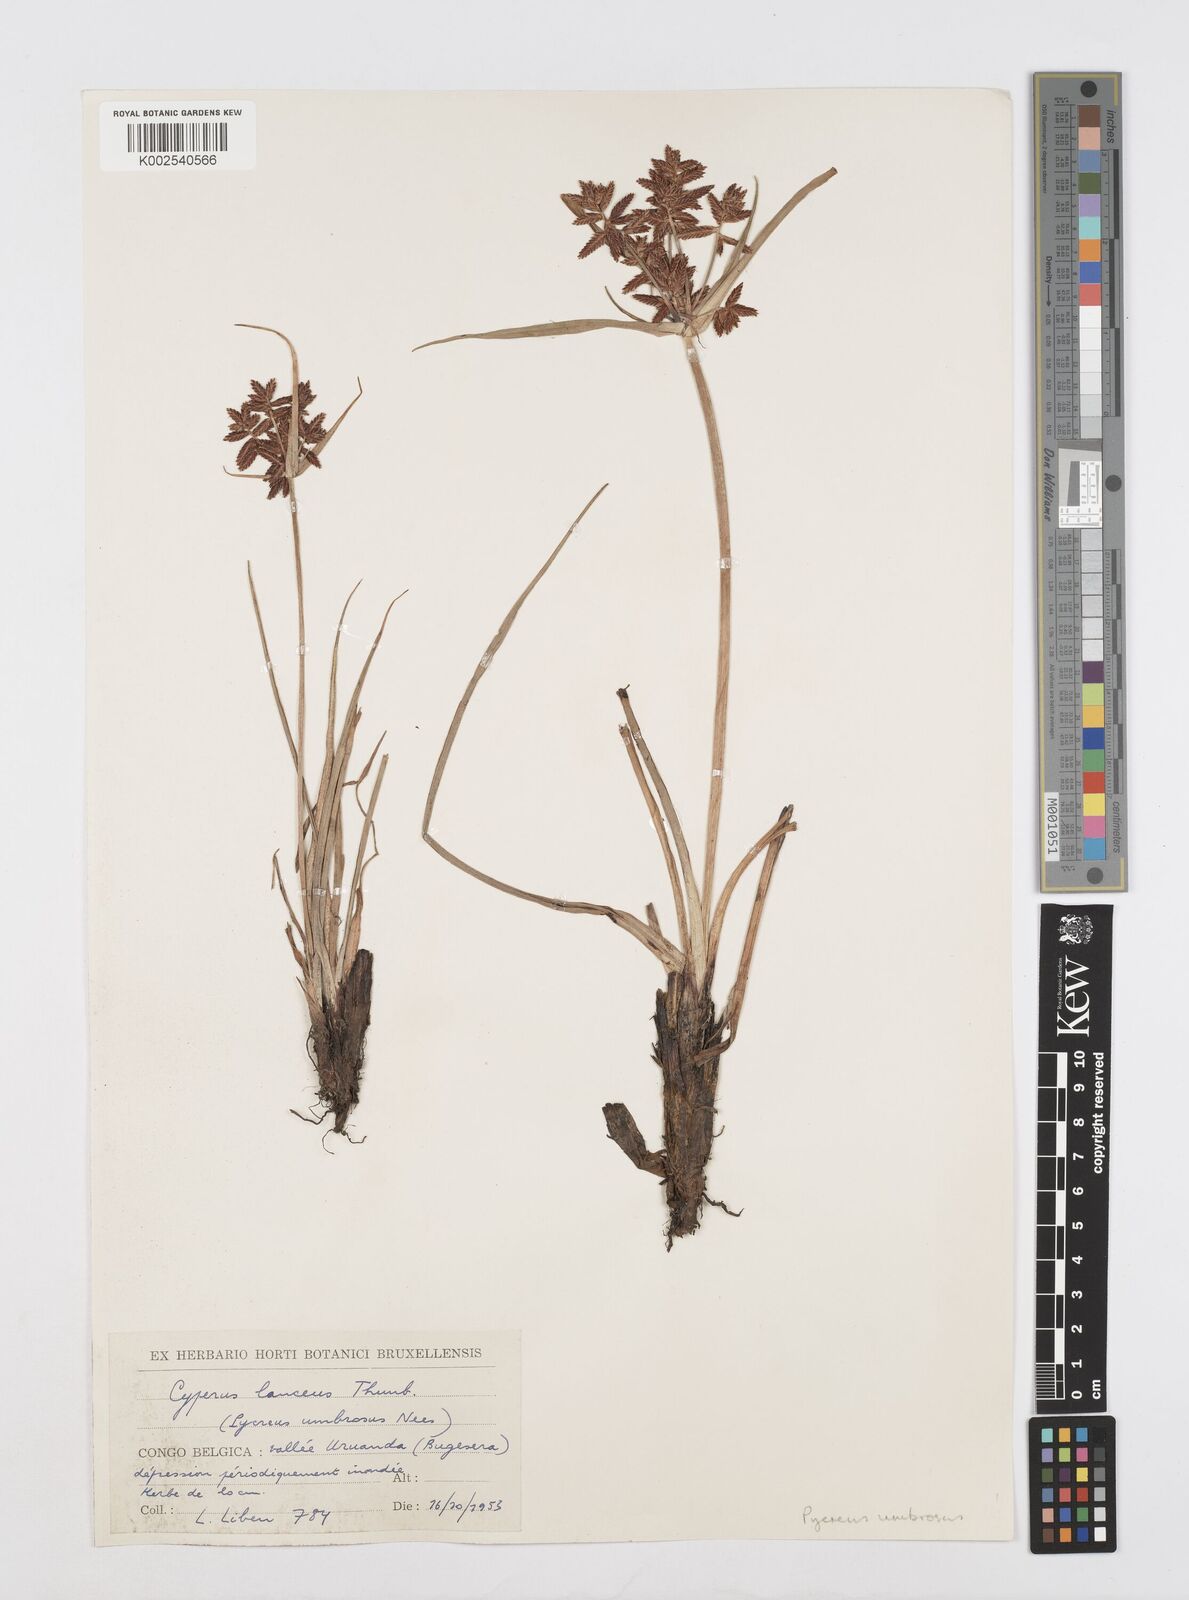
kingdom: Plantae
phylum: Tracheophyta
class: Liliopsida
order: Poales
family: Cyperaceae
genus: Cyperus
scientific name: Cyperus nitidus
